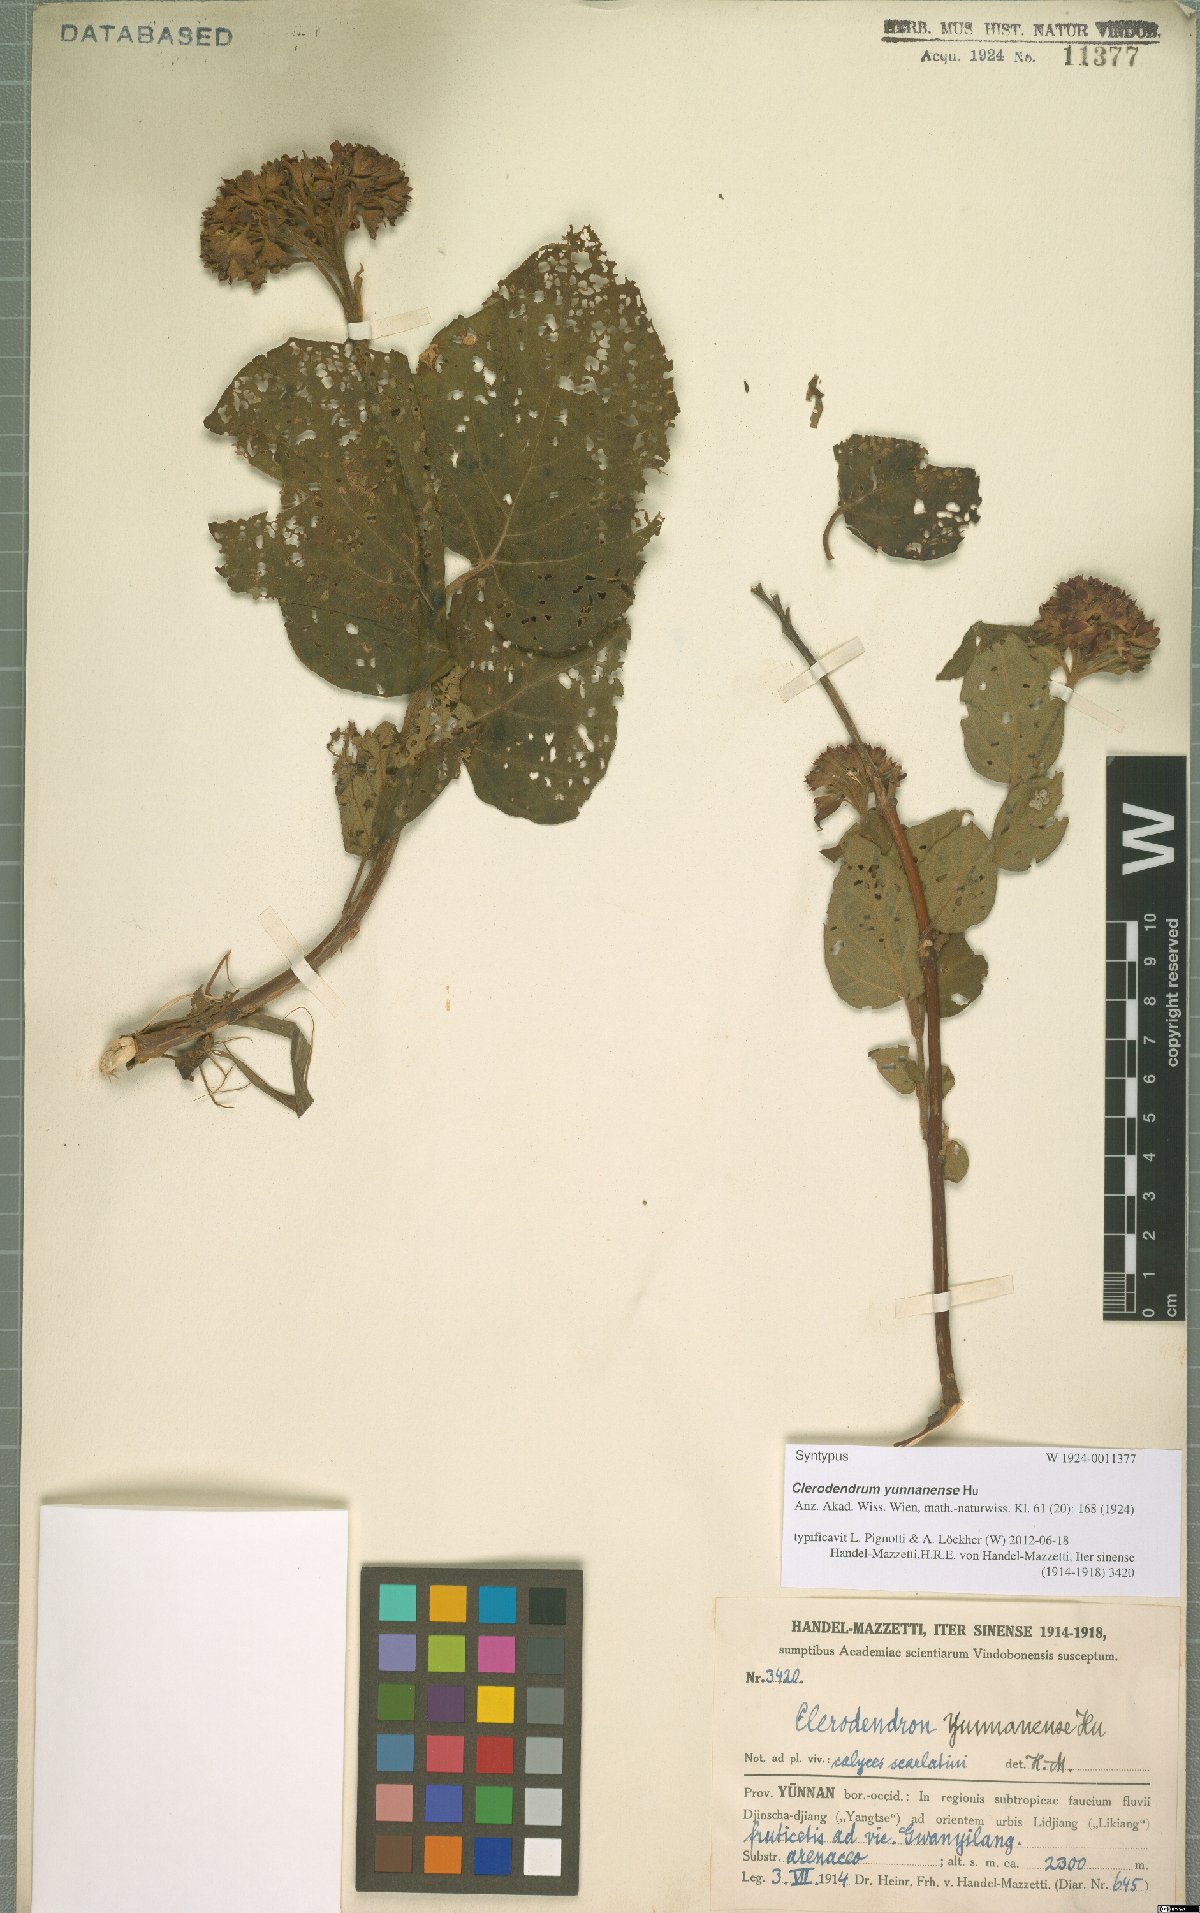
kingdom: Plantae
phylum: Tracheophyta
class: Magnoliopsida
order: Lamiales
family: Lamiaceae
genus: Clerodendrum
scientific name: Clerodendrum yunnanense
